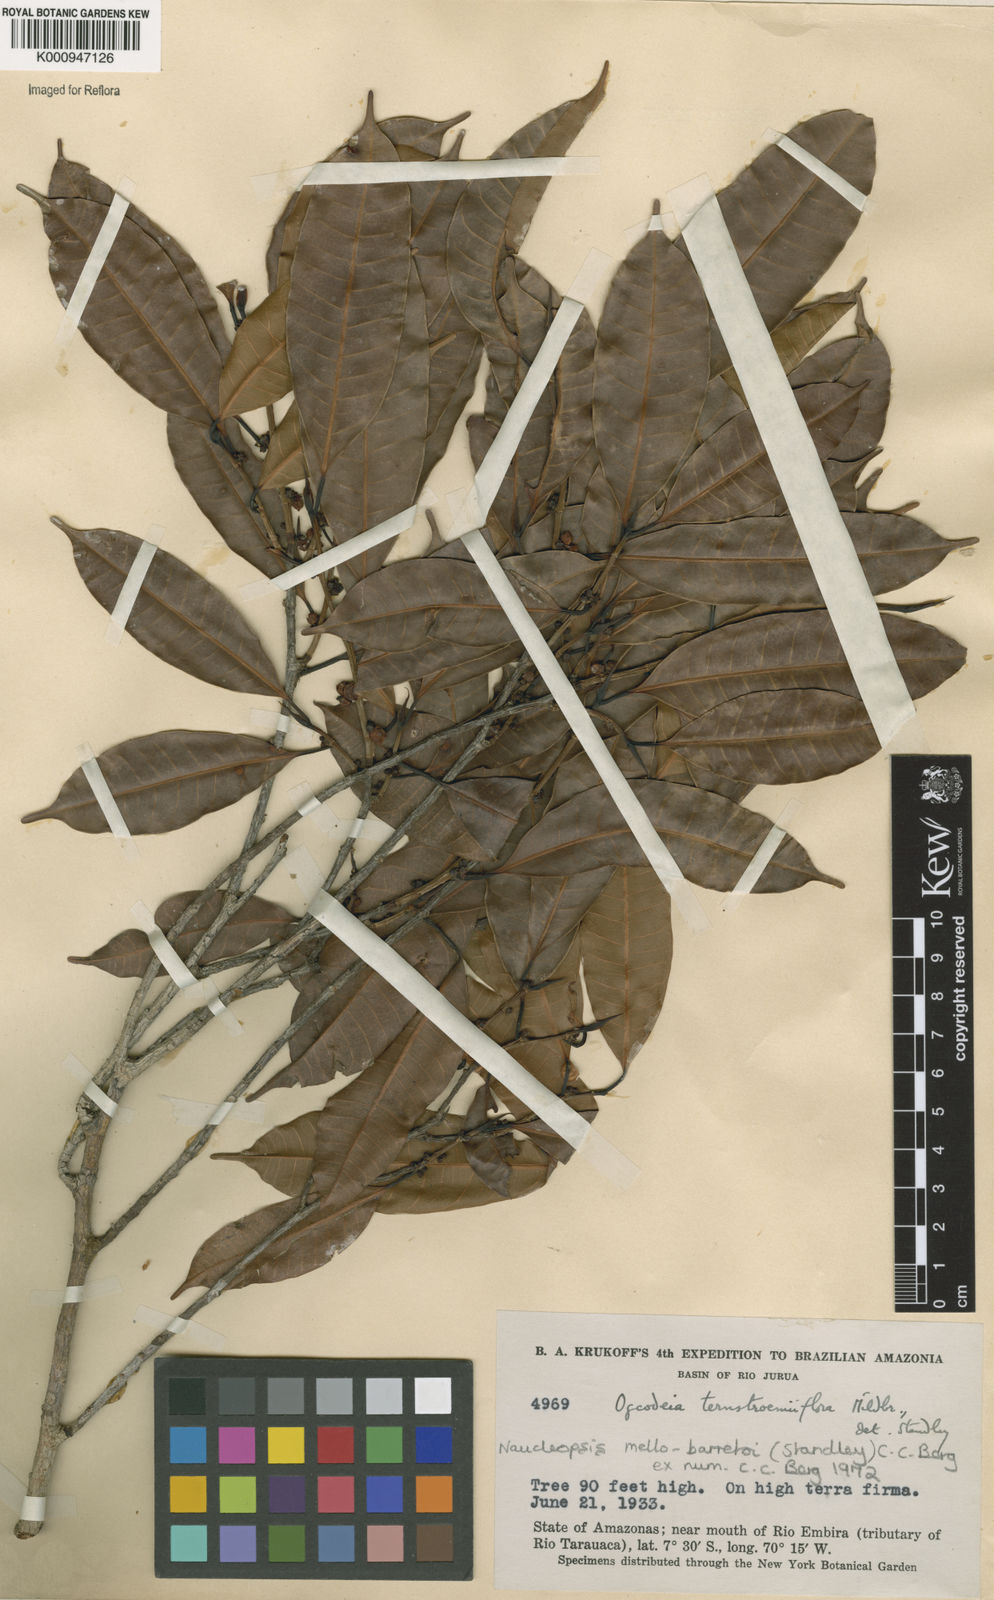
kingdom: Plantae
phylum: Tracheophyta
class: Magnoliopsida
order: Rosales
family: Moraceae
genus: Naucleopsis
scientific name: Naucleopsis oblongifolia
